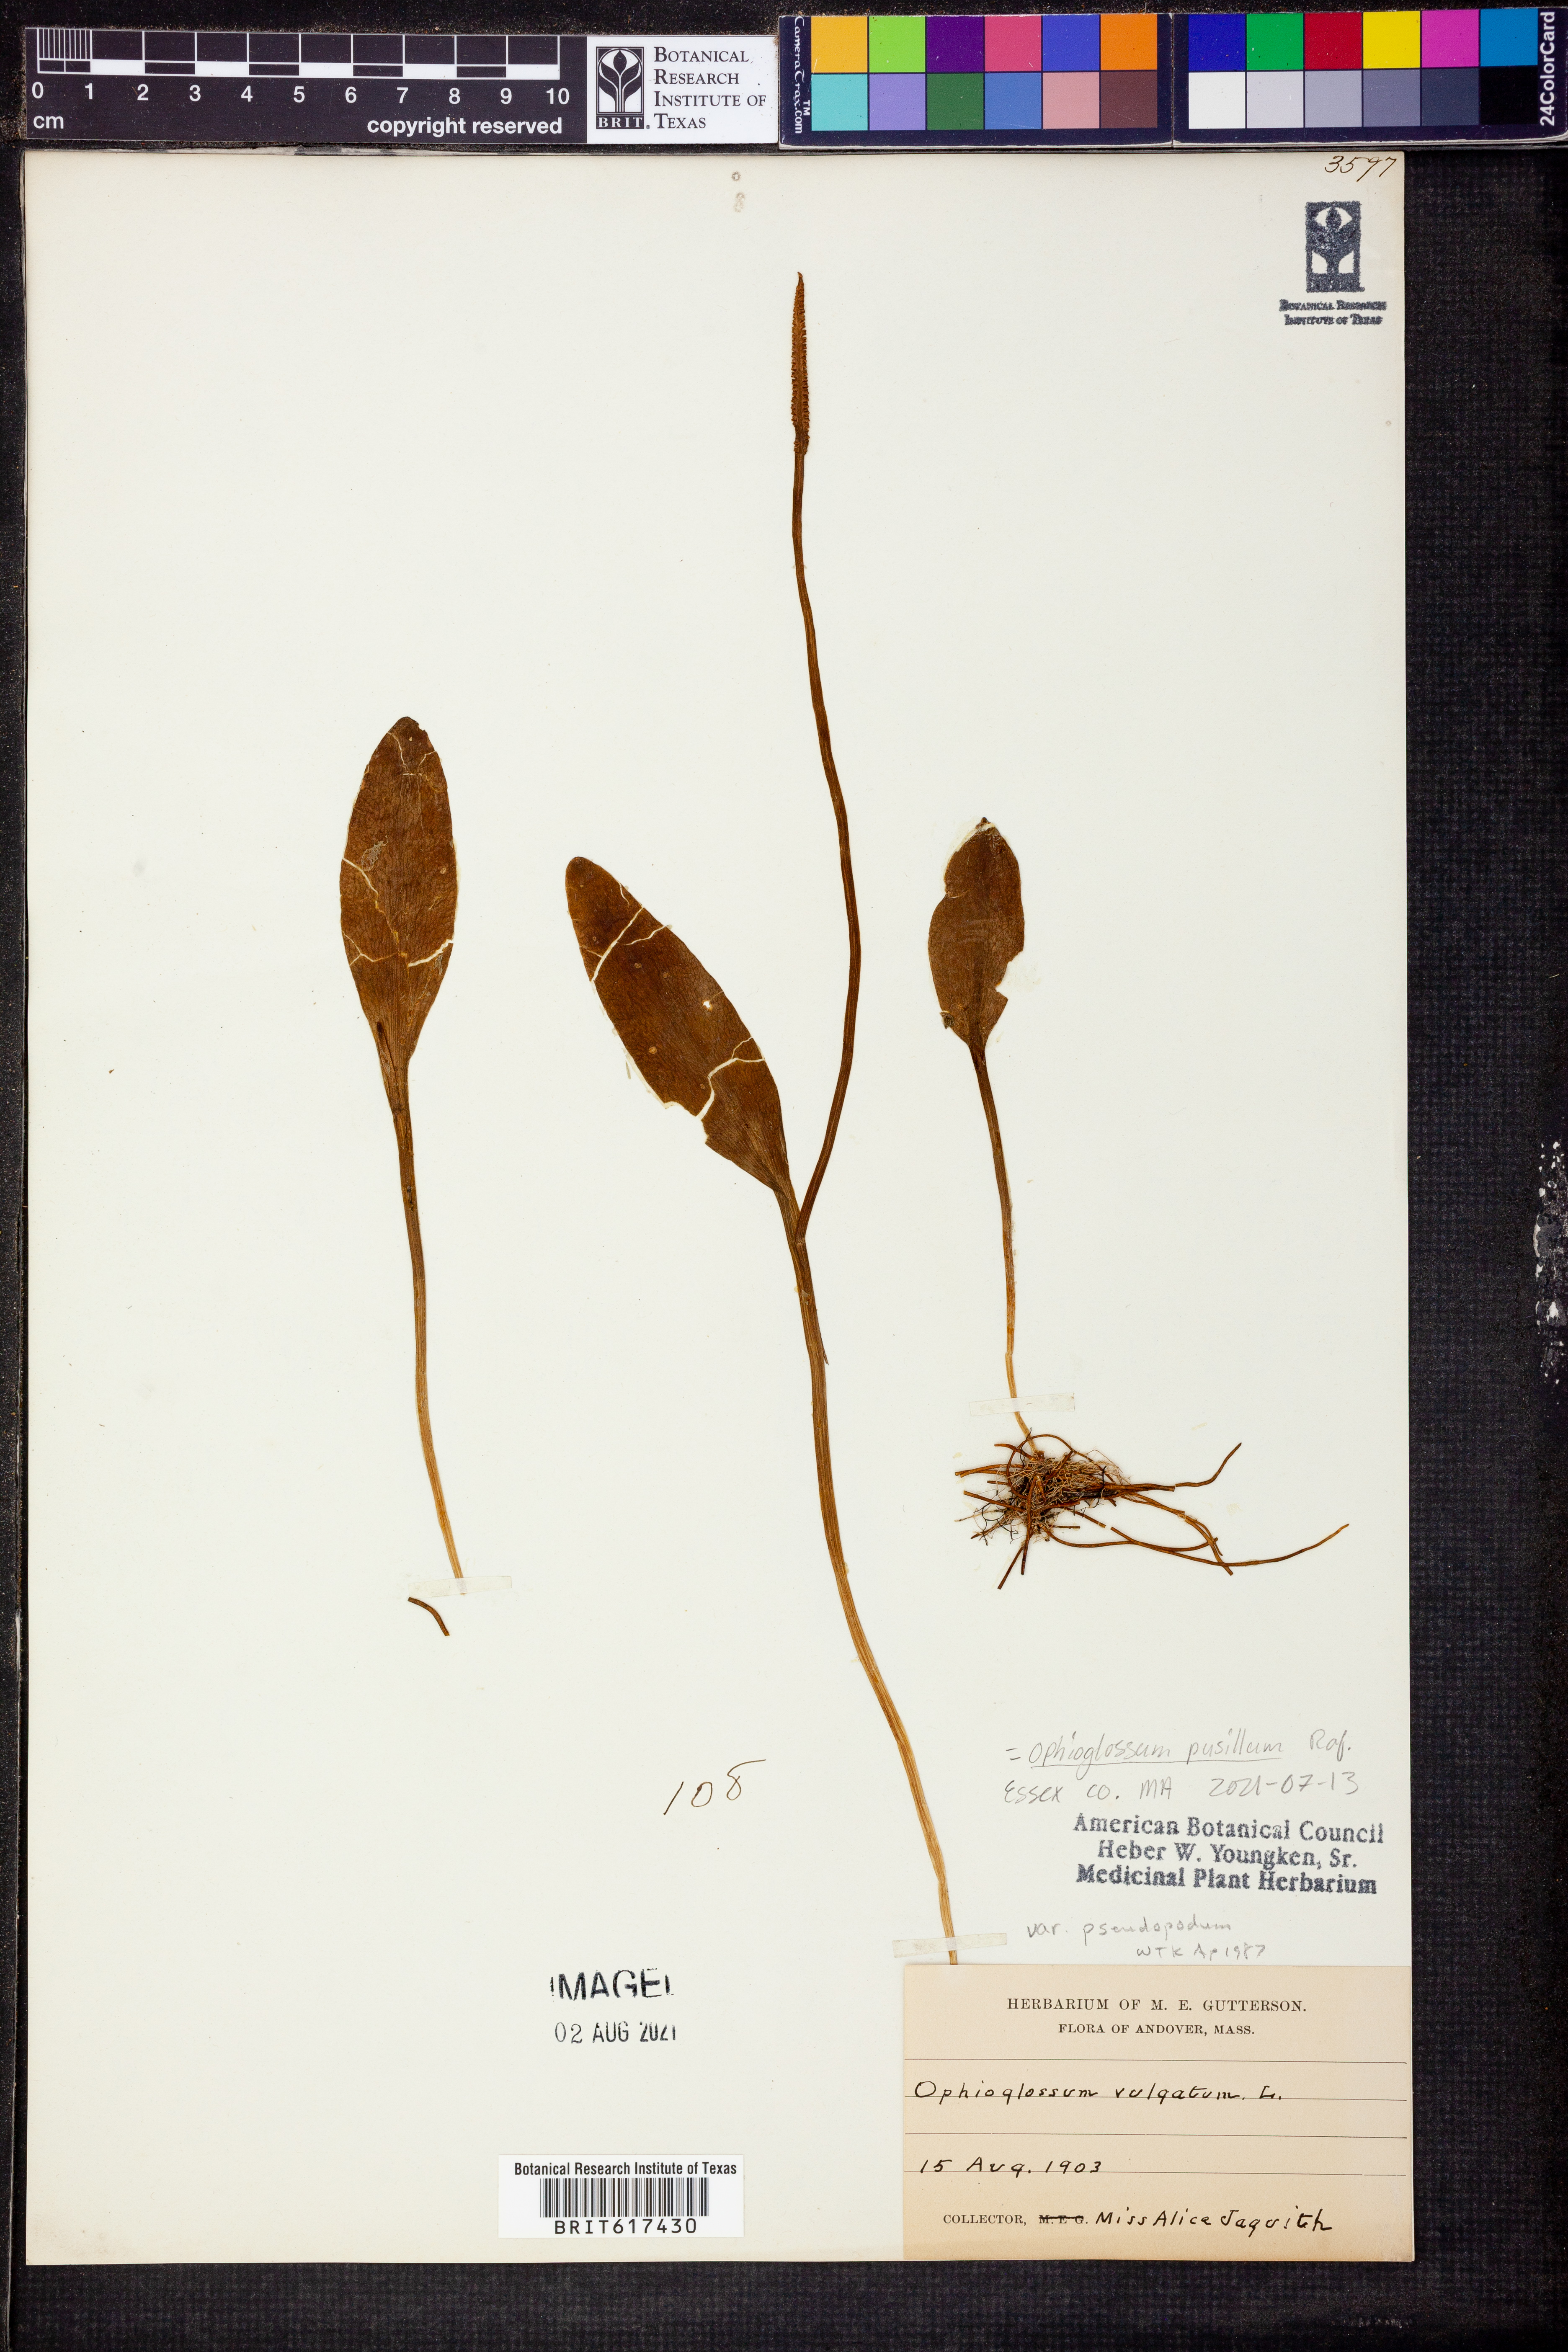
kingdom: Plantae
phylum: Tracheophyta
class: Polypodiopsida
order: Ophioglossales
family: Ophioglossaceae
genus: Ophioglossum
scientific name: Ophioglossum vulgatum
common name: Adder's-tongue
